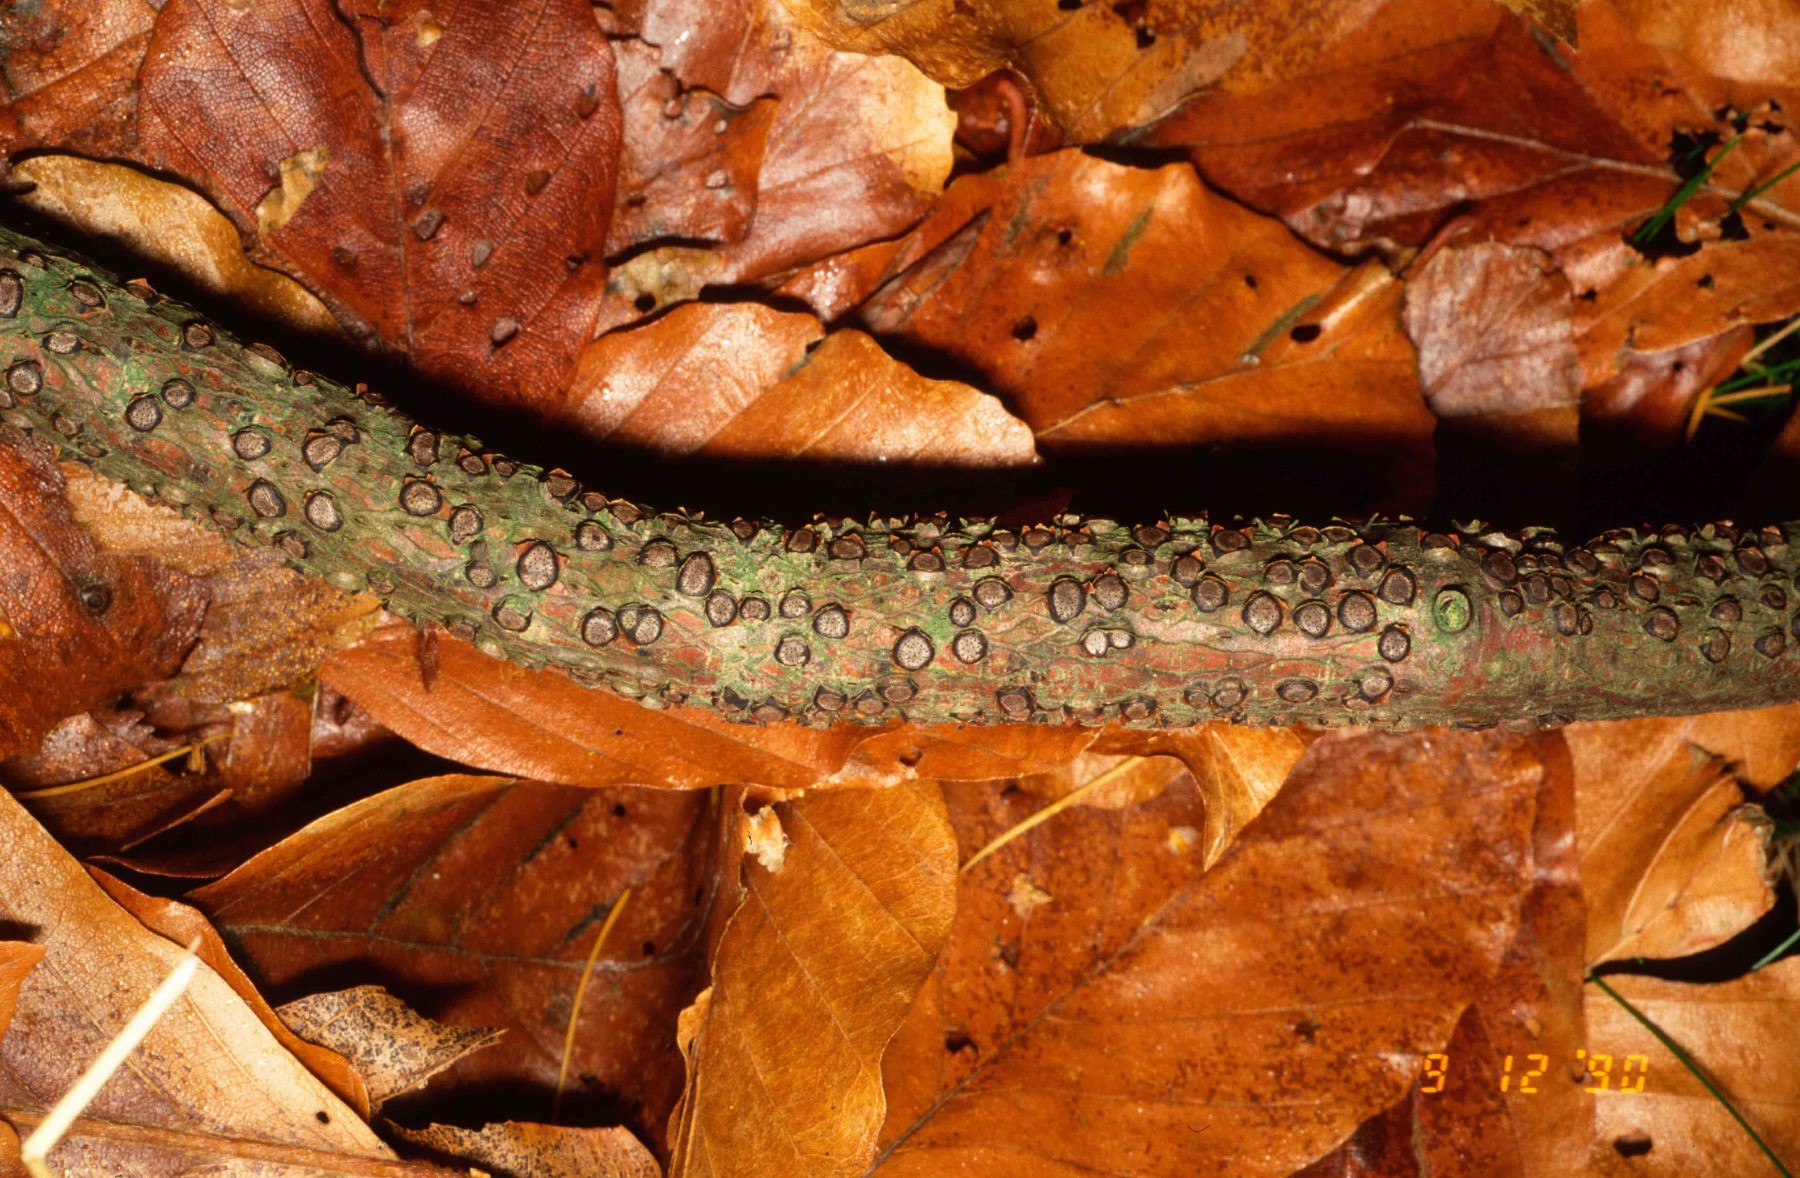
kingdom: Fungi
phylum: Ascomycota
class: Sordariomycetes
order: Xylariales
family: Diatrypaceae
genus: Diatrype
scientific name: Diatrype disciformis
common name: kant-kulskorpe
